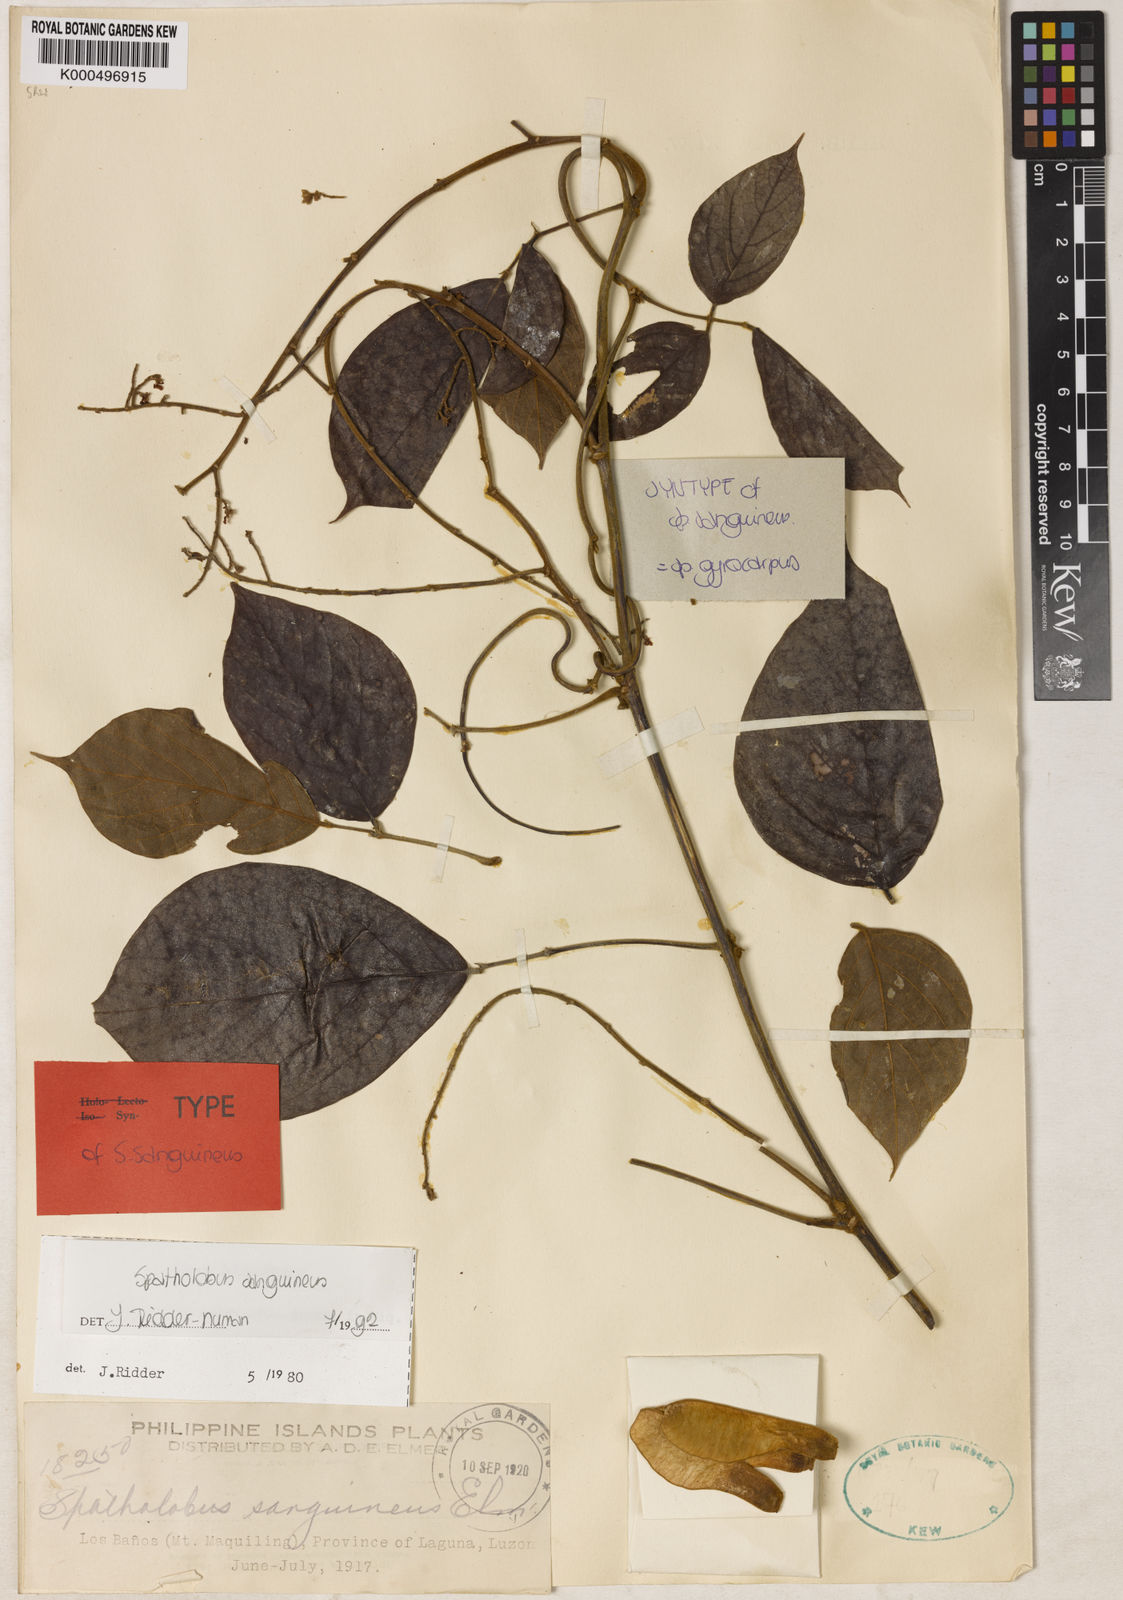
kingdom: Plantae
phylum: Tracheophyta
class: Magnoliopsida
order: Fabales
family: Fabaceae
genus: Spatholobus
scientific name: Spatholobus sanguineus
